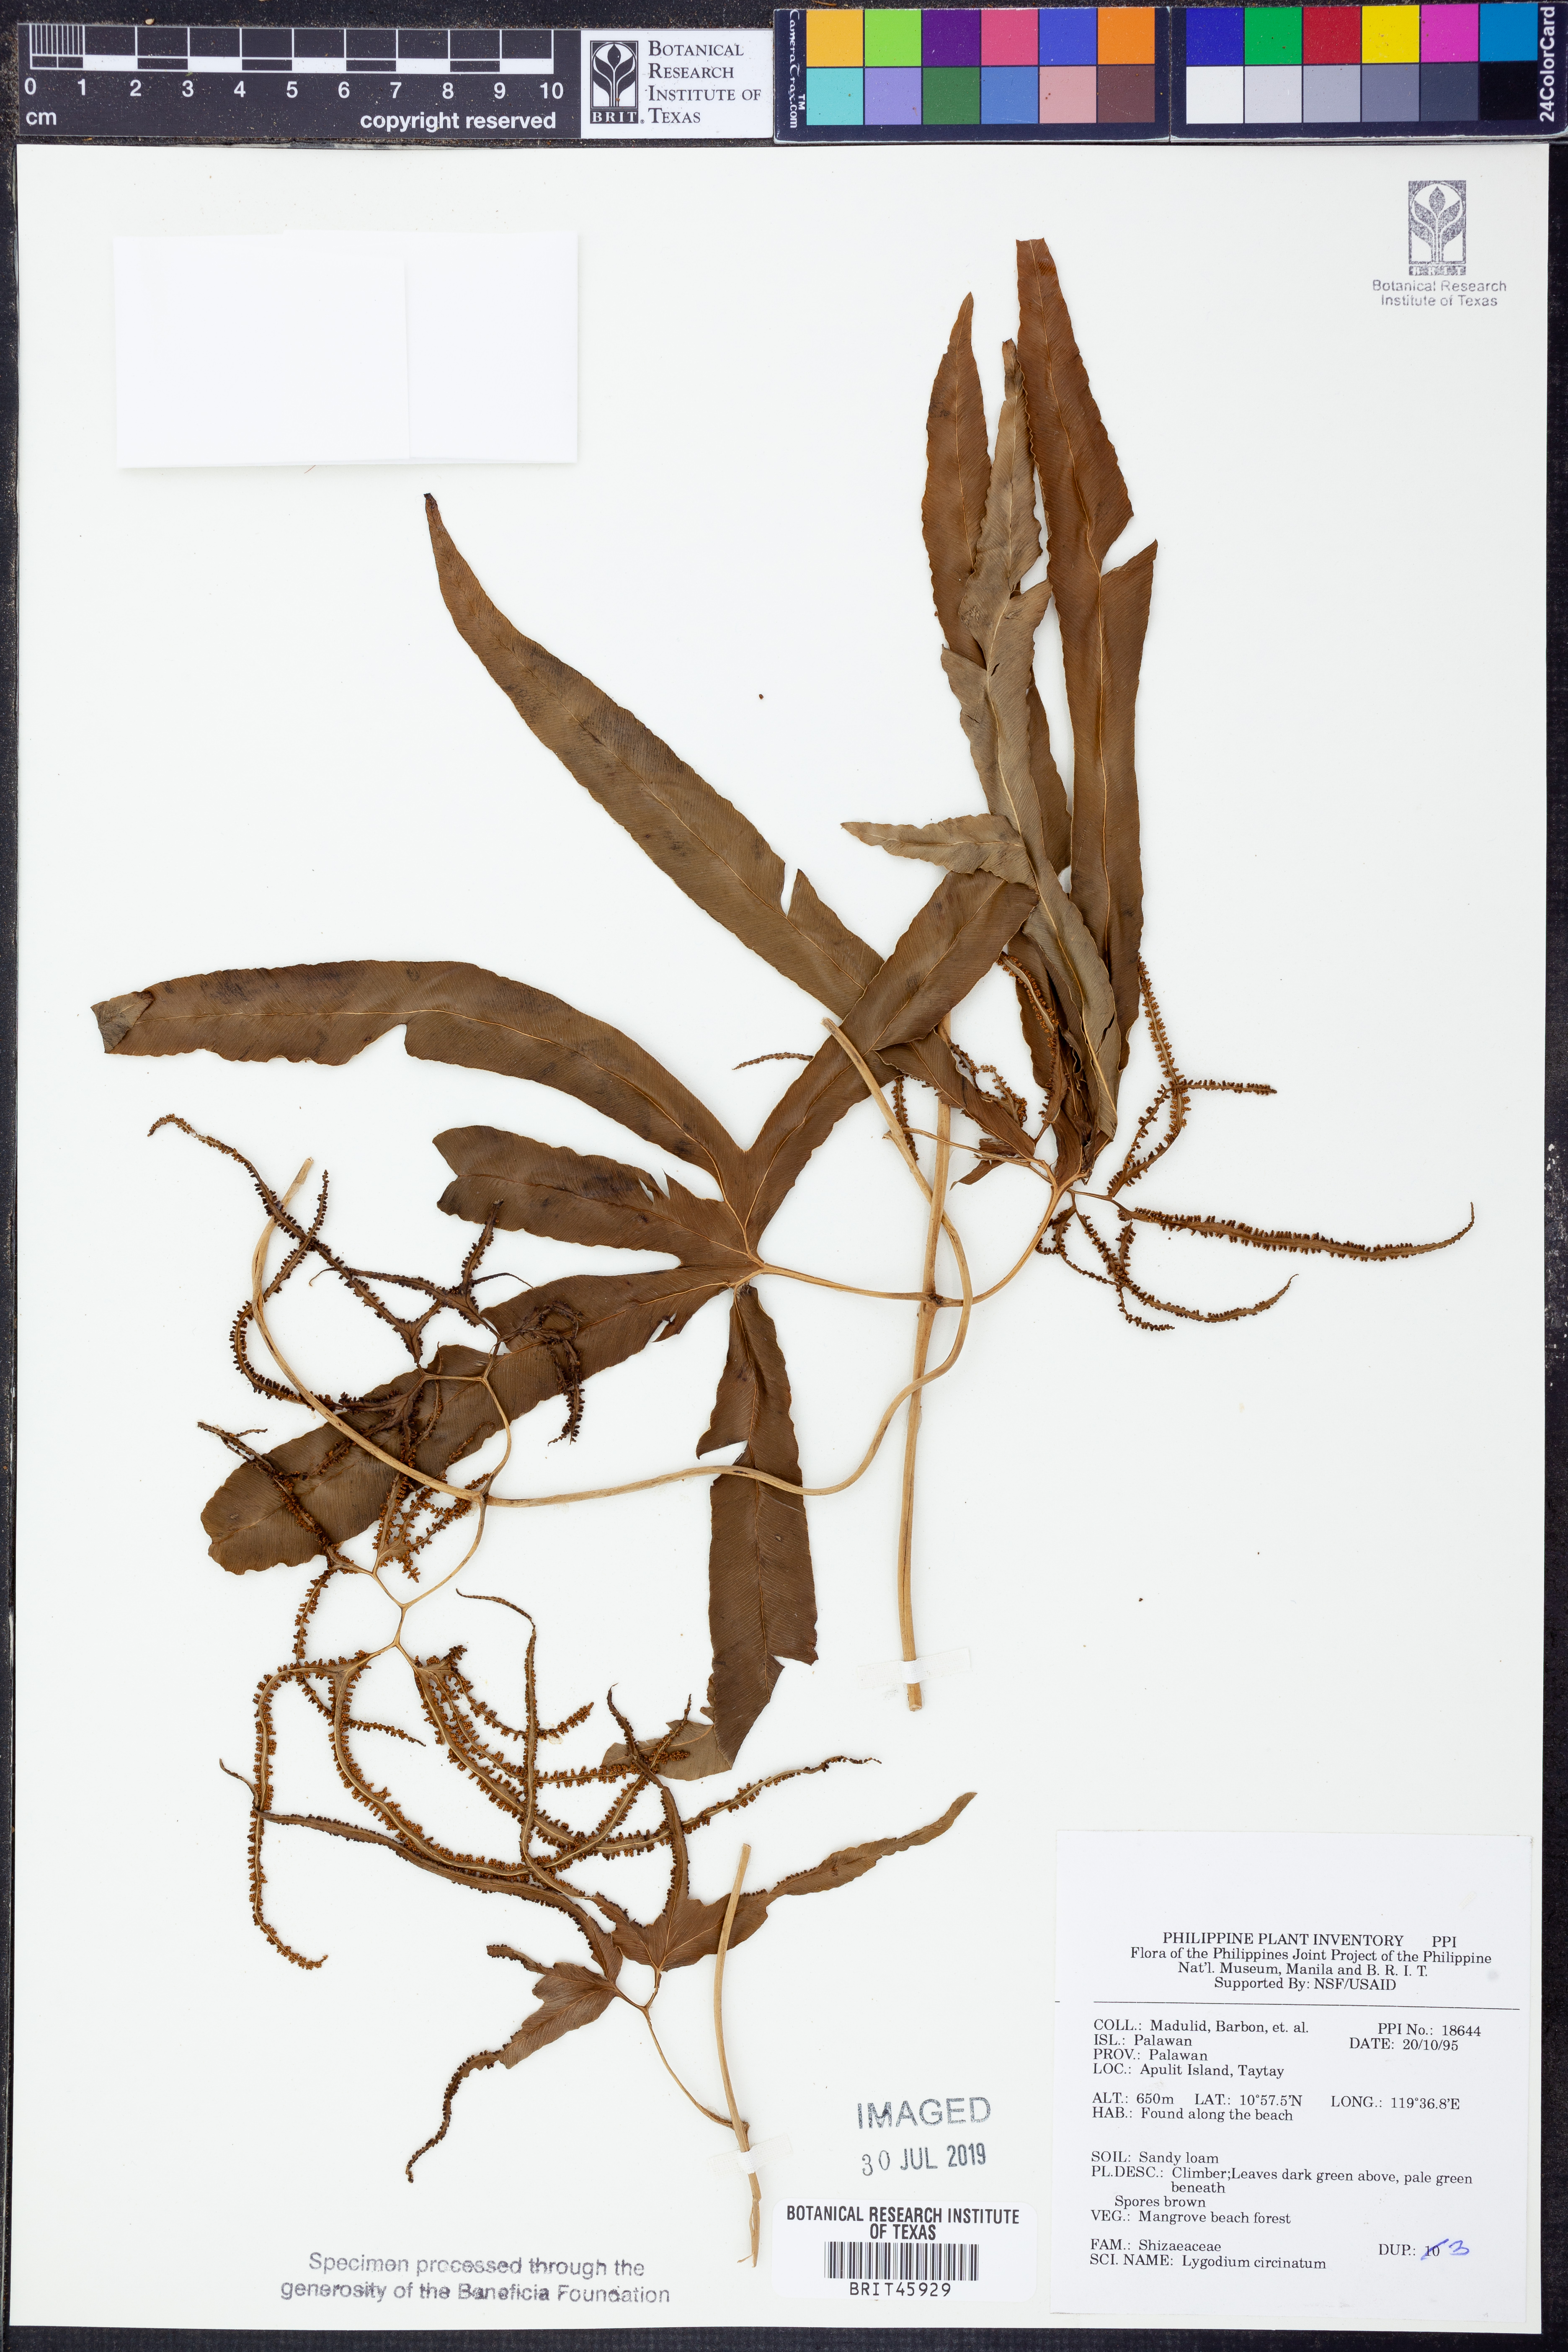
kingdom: Plantae
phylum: Tracheophyta
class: Polypodiopsida
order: Schizaeales
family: Lygodiaceae
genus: Lygodium
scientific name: Lygodium circinnatum
